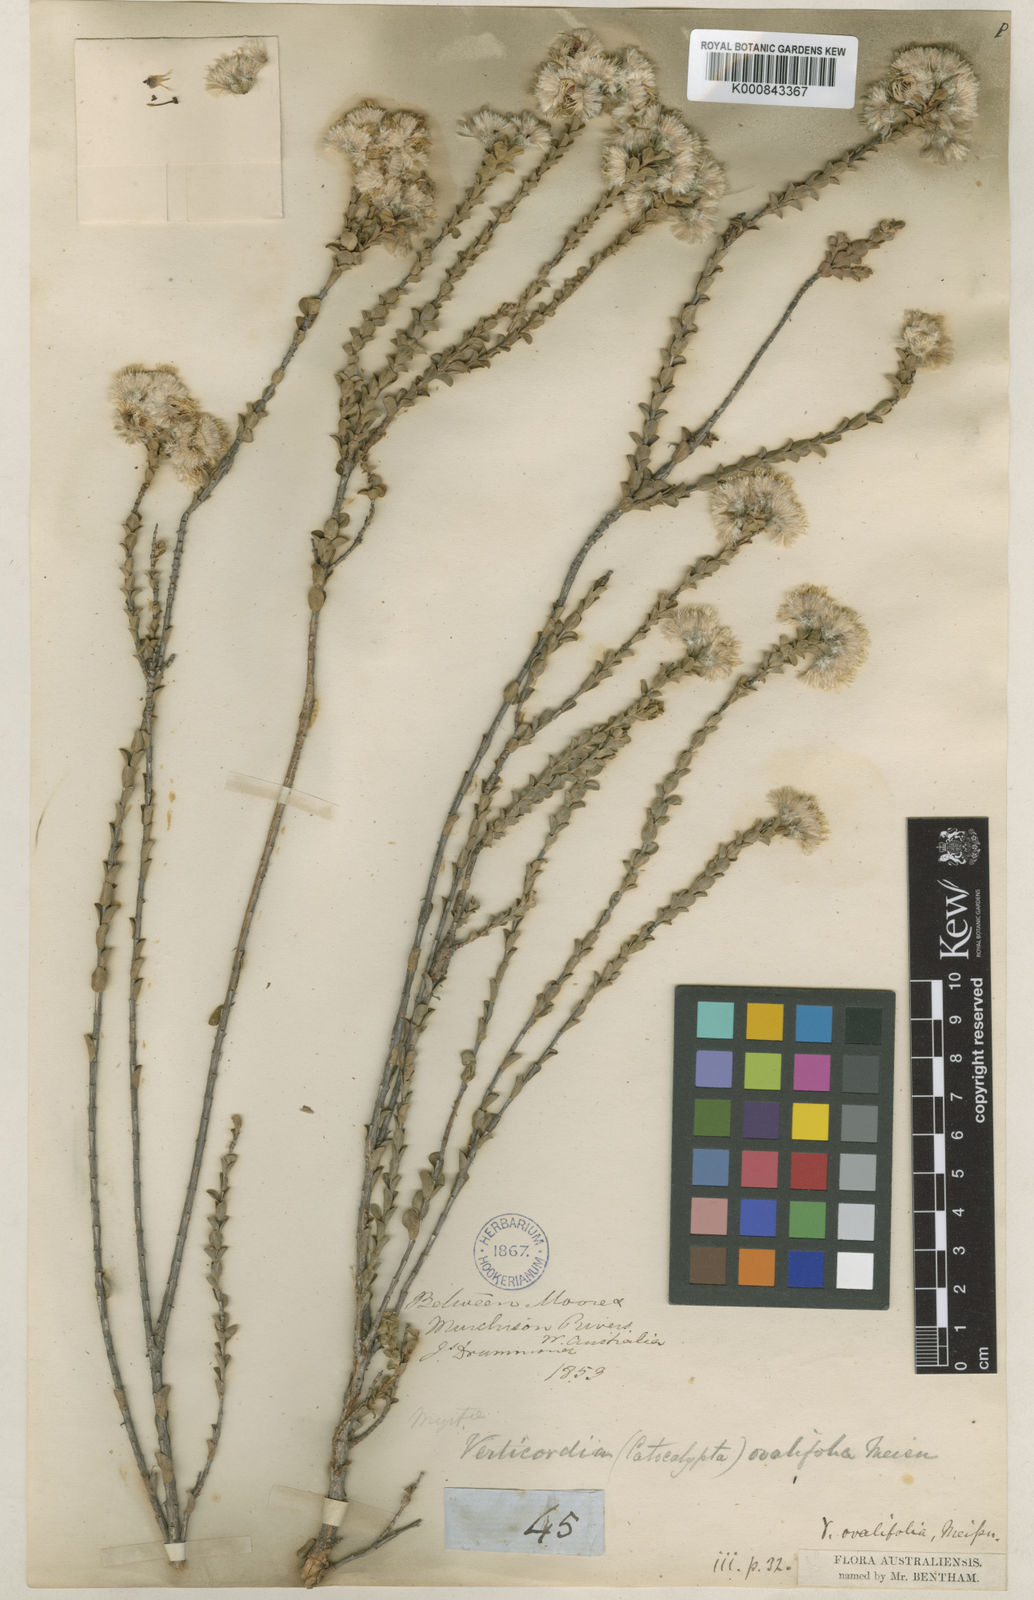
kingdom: Plantae
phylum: Tracheophyta
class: Magnoliopsida
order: Myrtales
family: Myrtaceae
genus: Verticordia
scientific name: Verticordia ovalifolia
